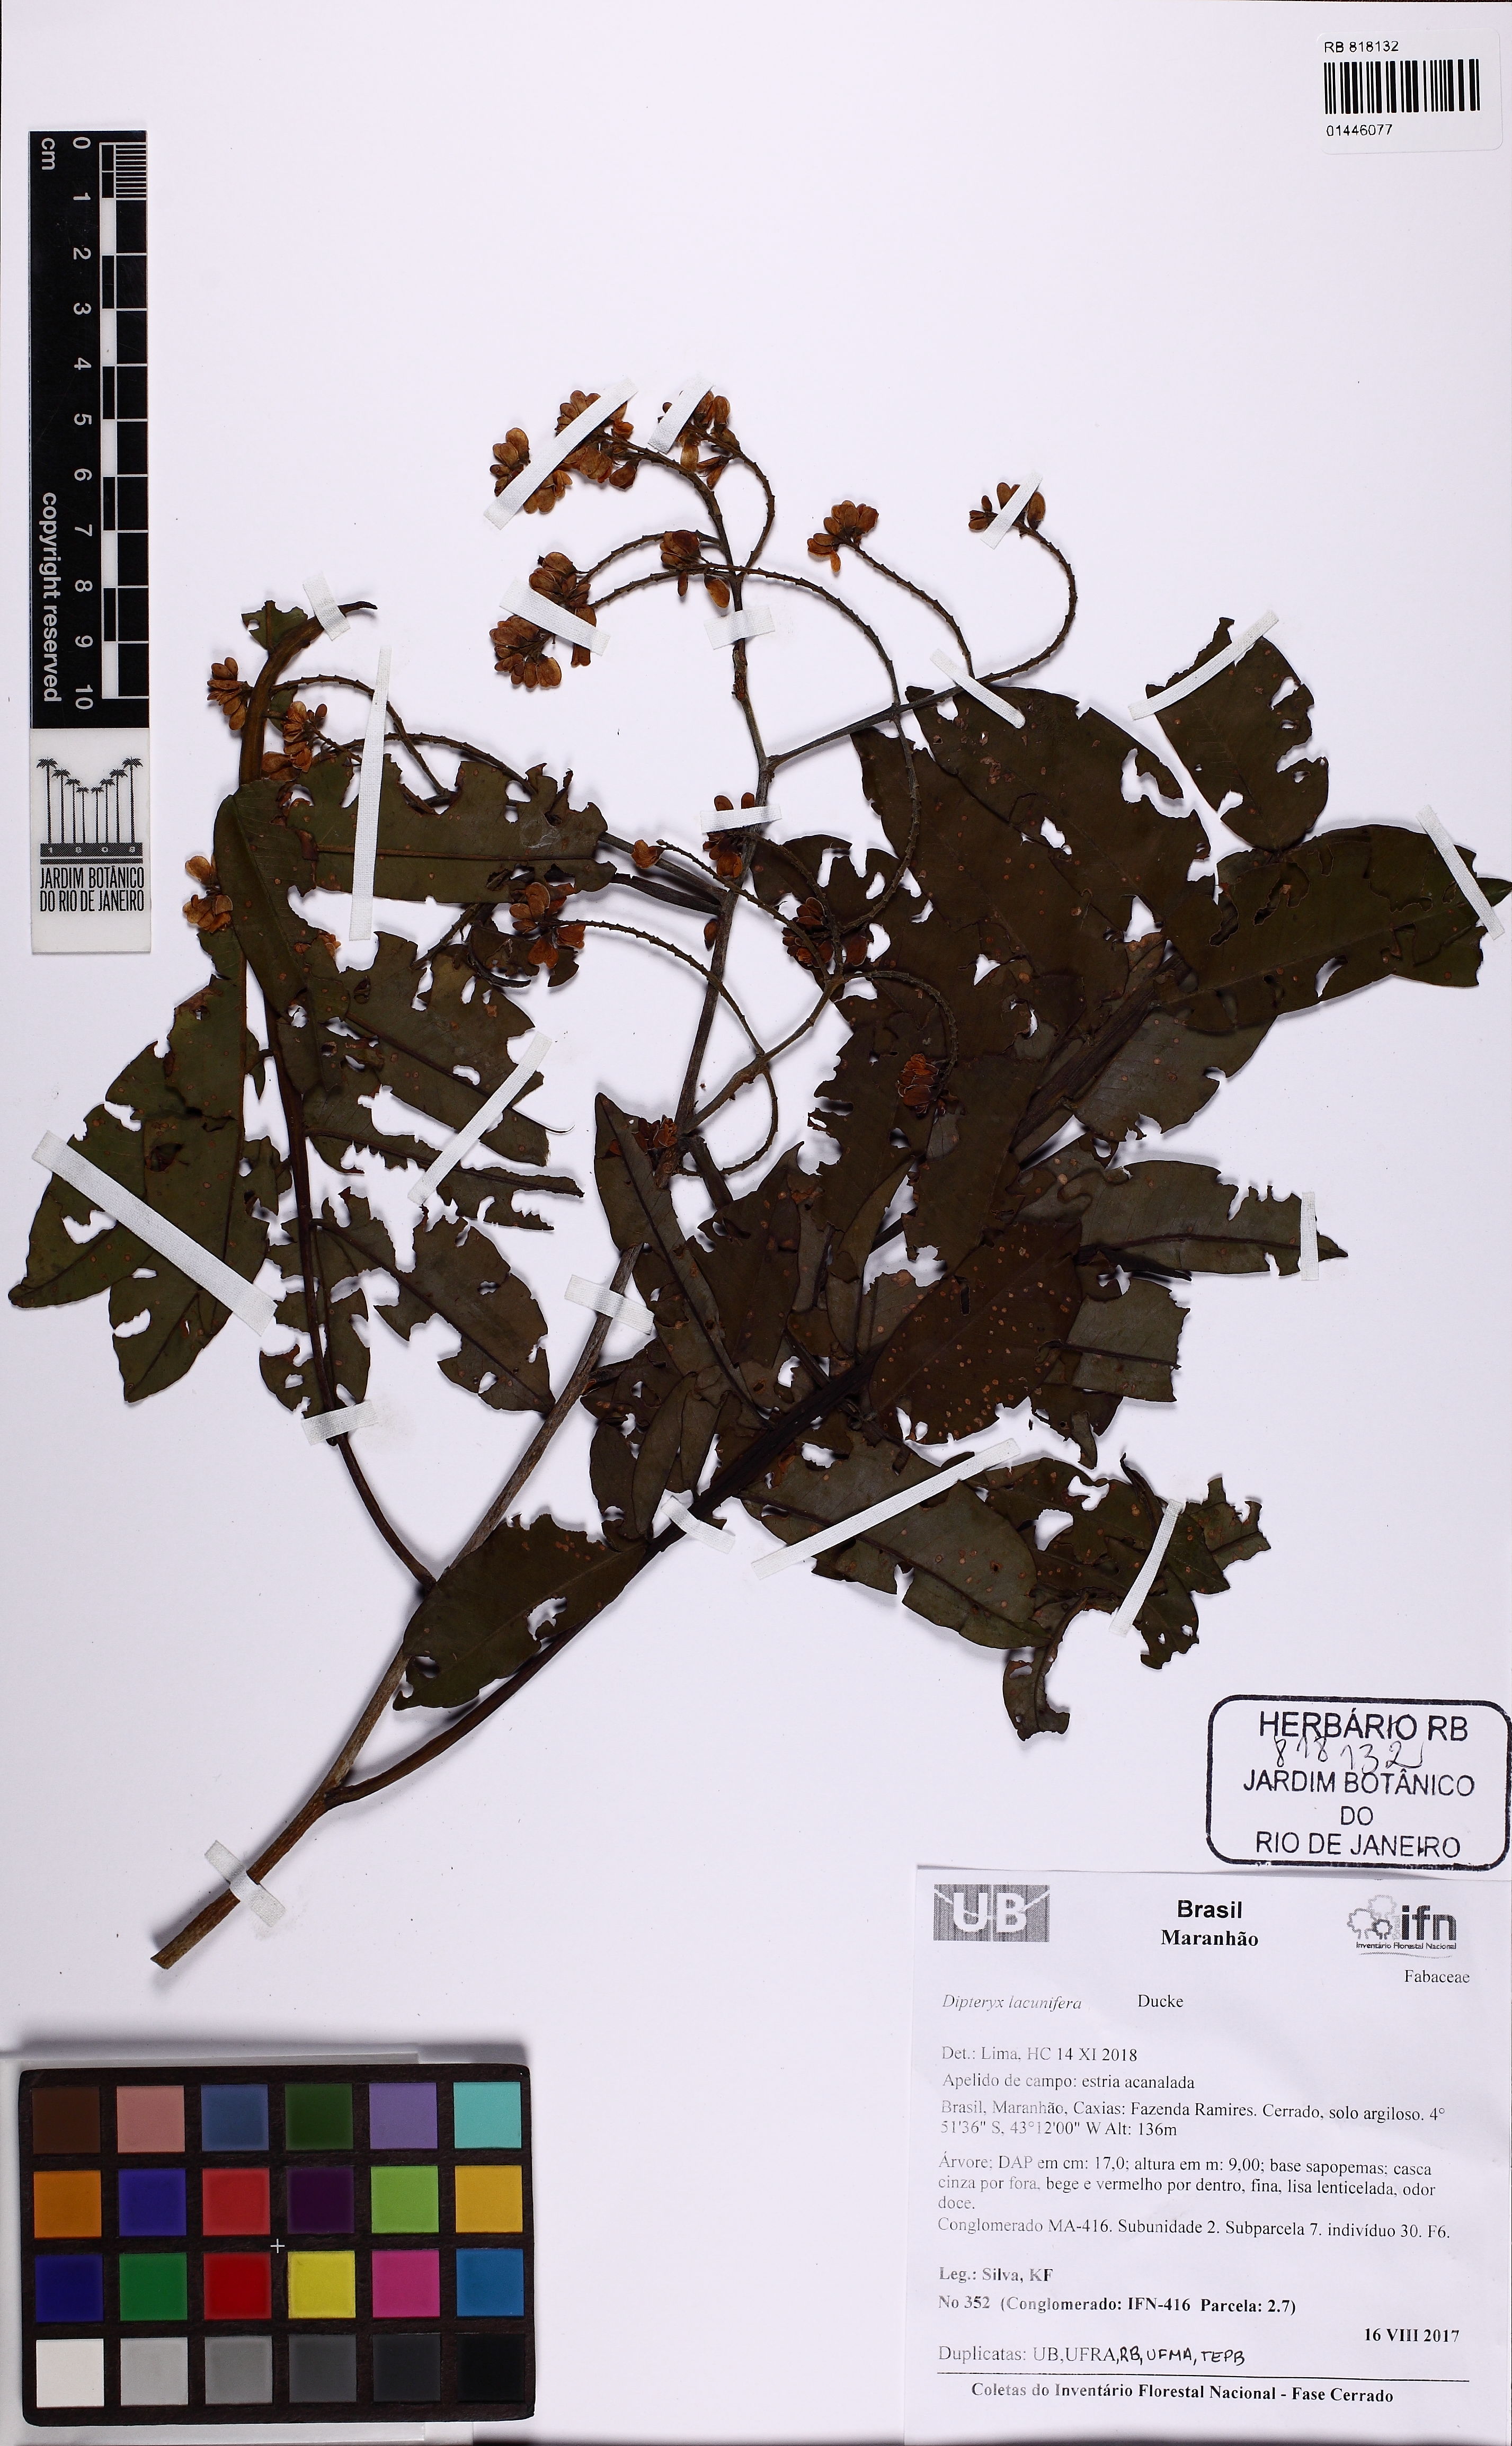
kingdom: Plantae
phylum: Tracheophyta
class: Magnoliopsida
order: Fabales
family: Fabaceae
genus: Dipteryx
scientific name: Dipteryx lacunifera
